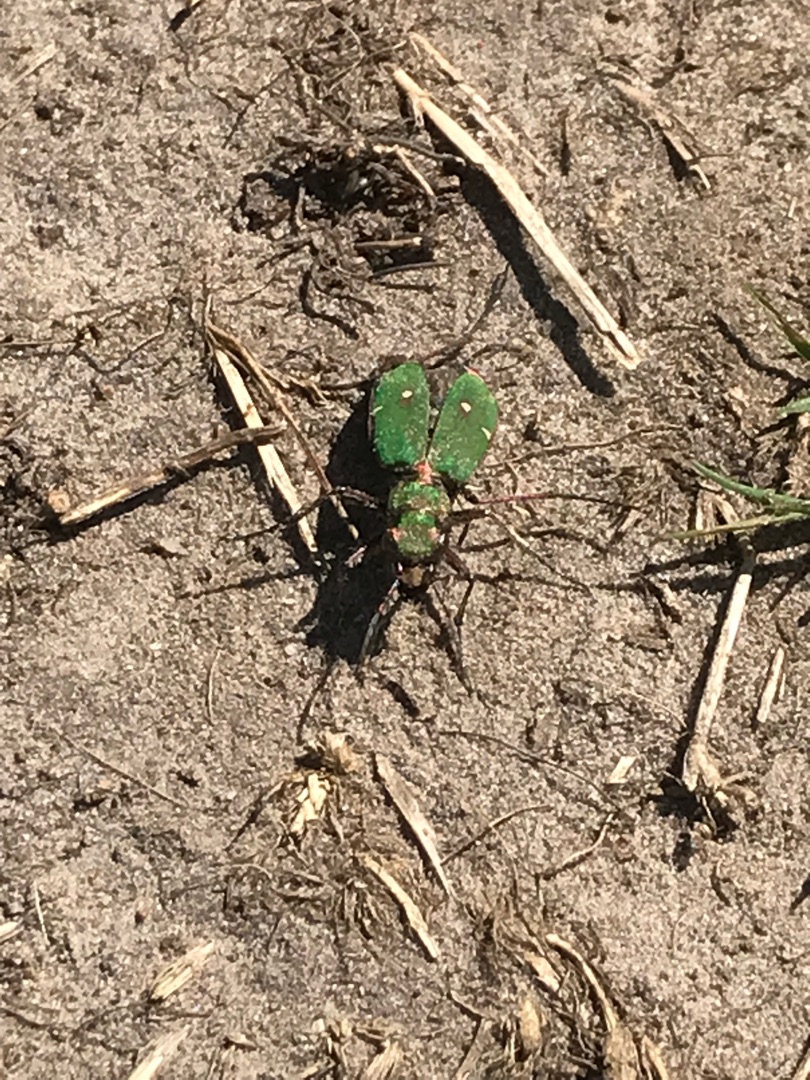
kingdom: Animalia
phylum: Arthropoda
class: Insecta
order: Coleoptera
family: Carabidae
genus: Cicindela
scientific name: Cicindela campestris
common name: Grøn sandspringer
